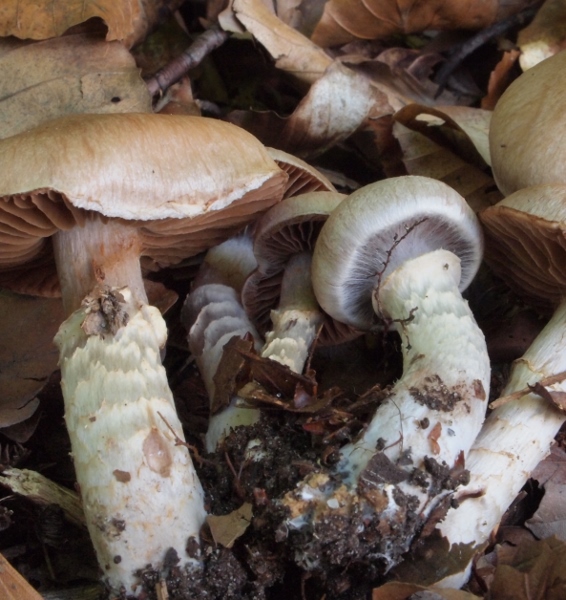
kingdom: Fungi
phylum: Basidiomycota
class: Agaricomycetes
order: Agaricales
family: Cortinariaceae
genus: Cortinarius
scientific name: Cortinarius torvus
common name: champignonagtig slørhat
